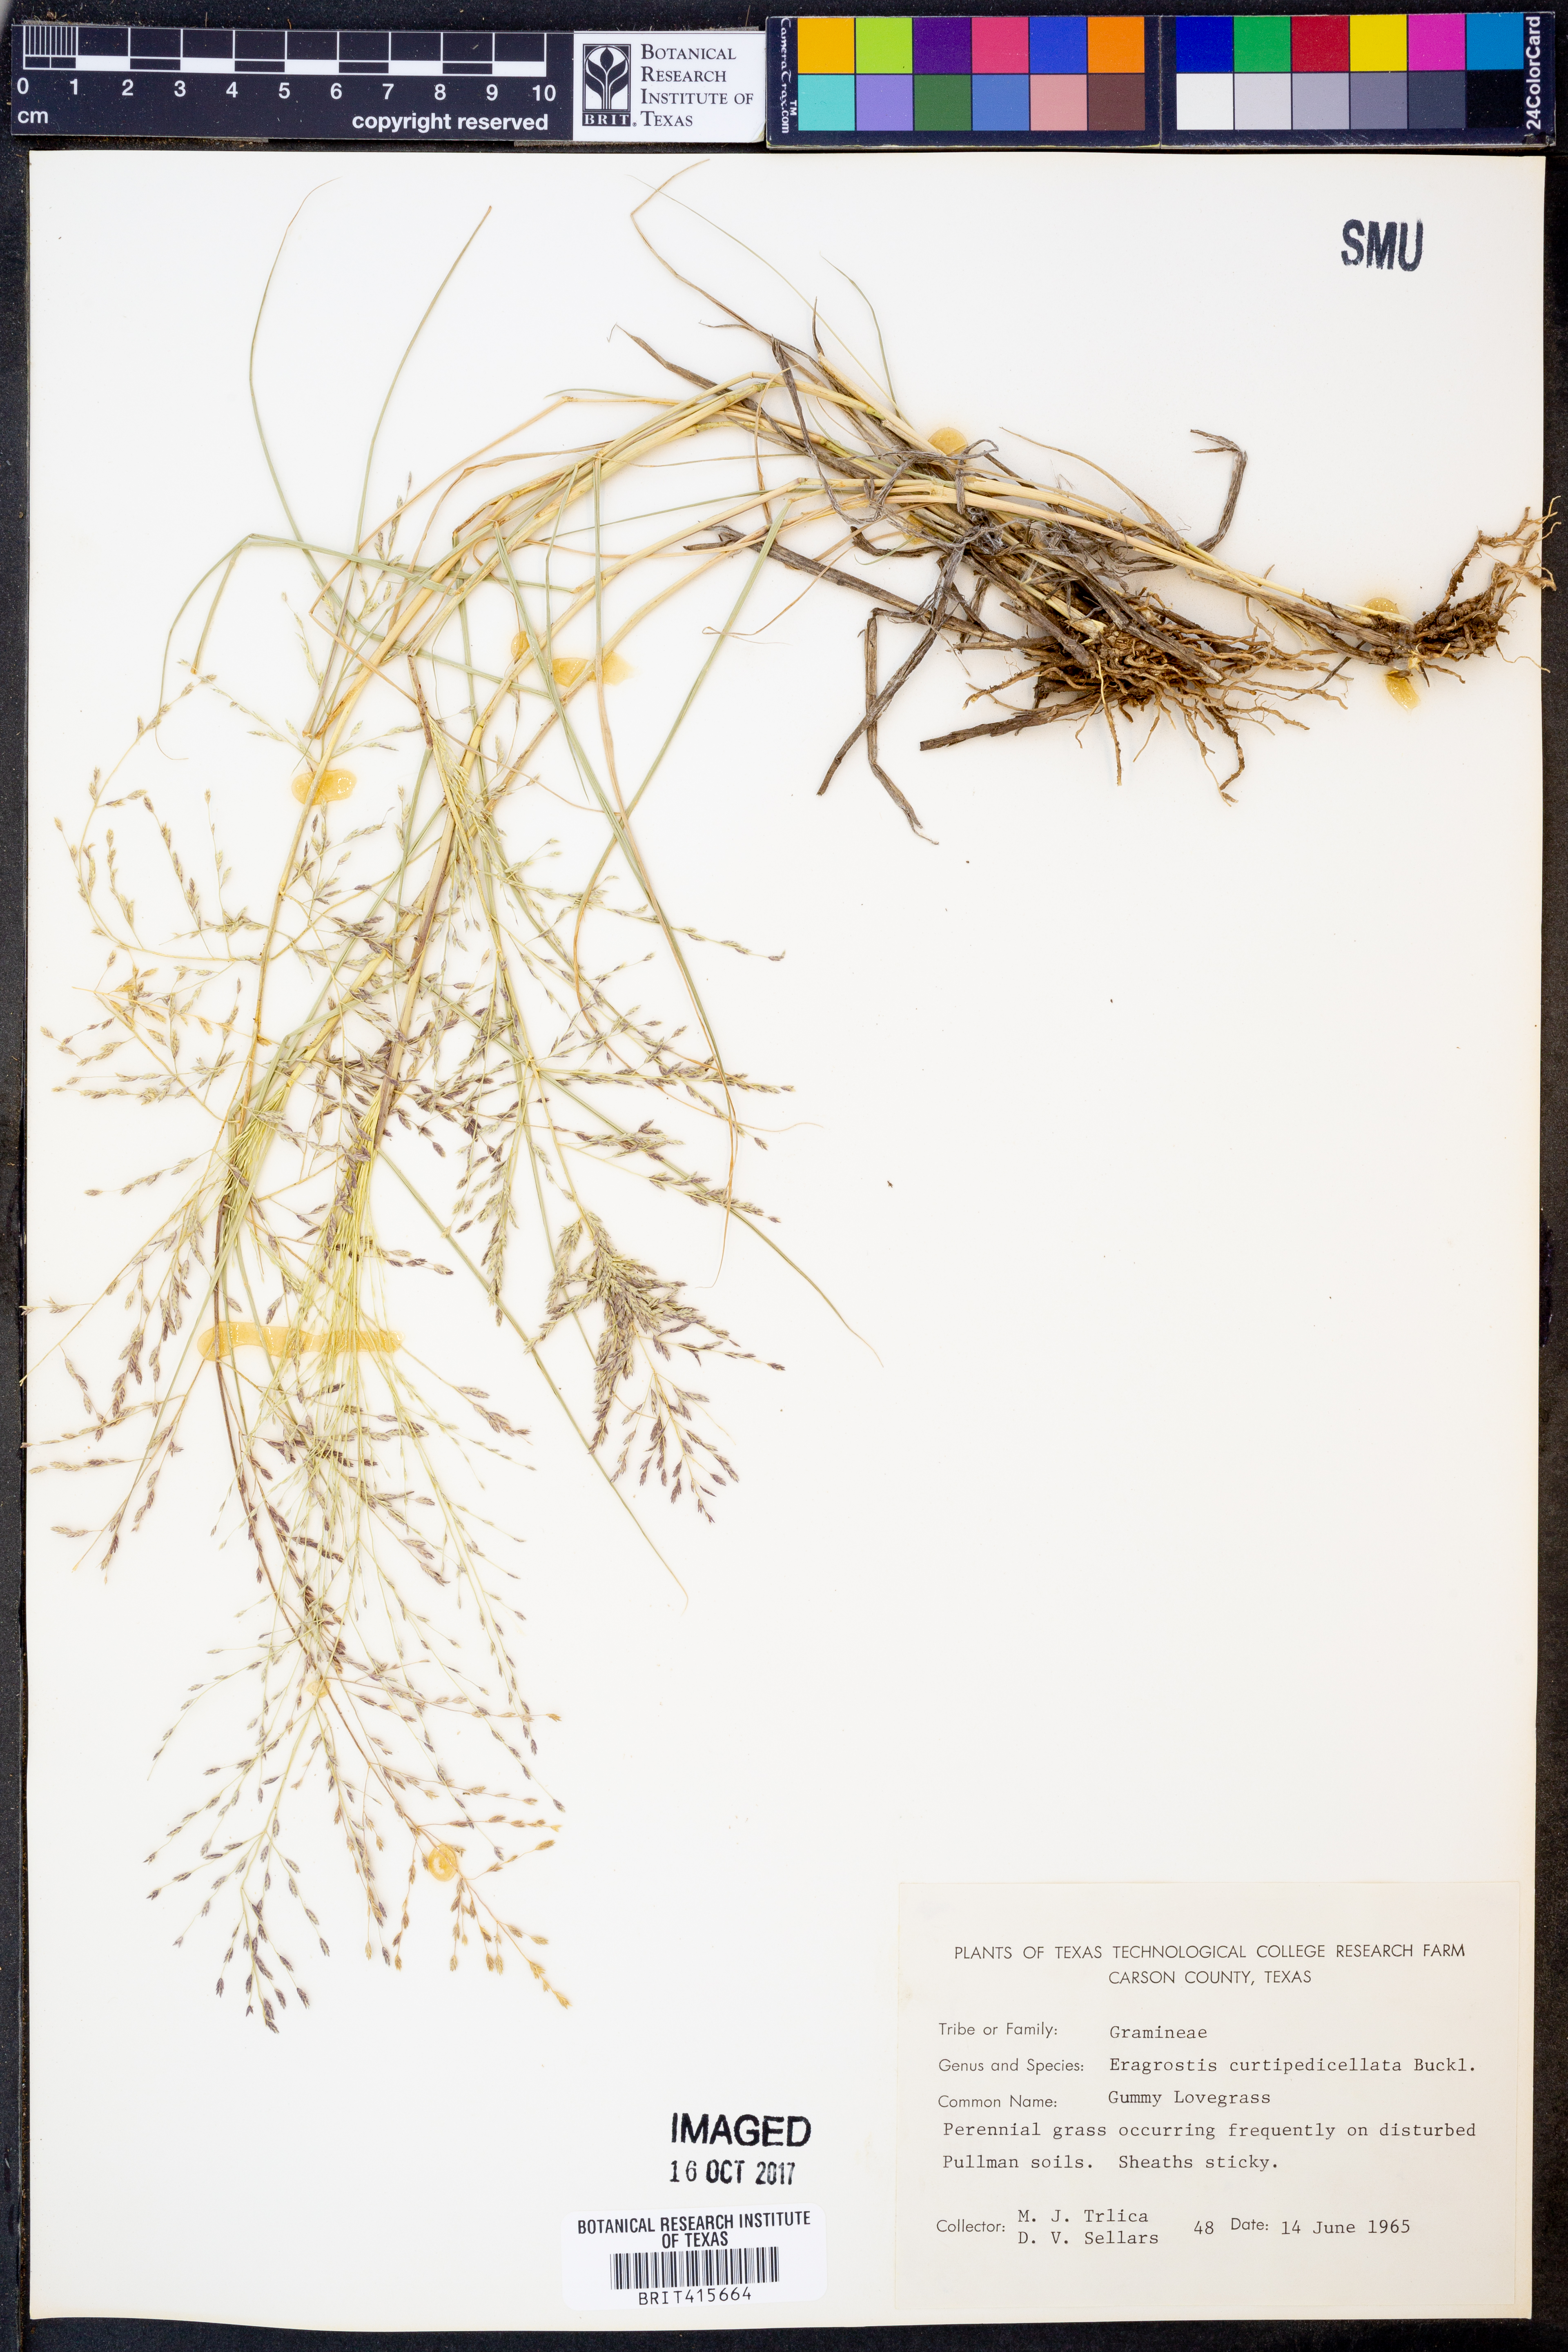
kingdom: Plantae
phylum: Tracheophyta
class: Liliopsida
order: Poales
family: Poaceae
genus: Eragrostis
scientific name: Eragrostis curtipedicellata
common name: Gummy love grass
